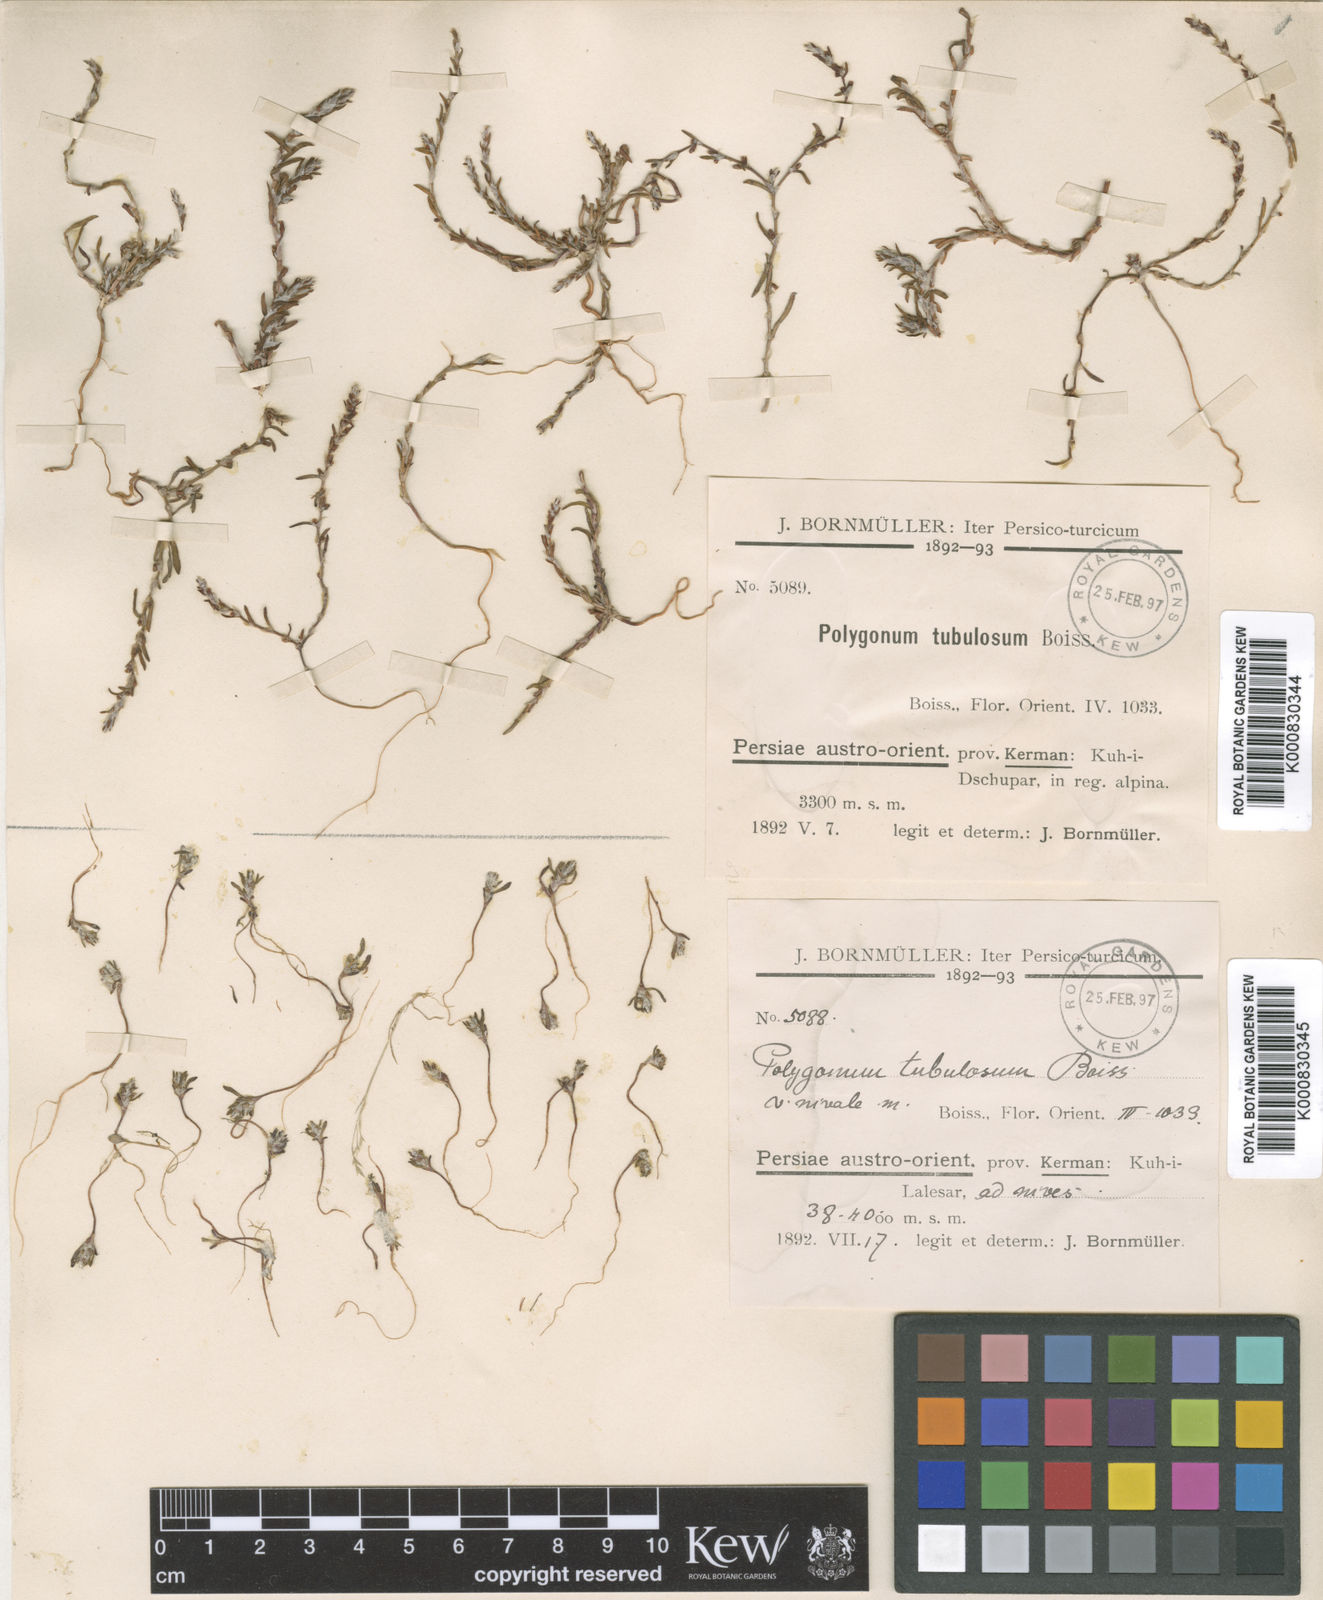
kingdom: Plantae
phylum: Tracheophyta
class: Magnoliopsida
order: Caryophyllales
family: Polygonaceae
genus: Polygonum
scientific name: Polygonum rottboellioides
